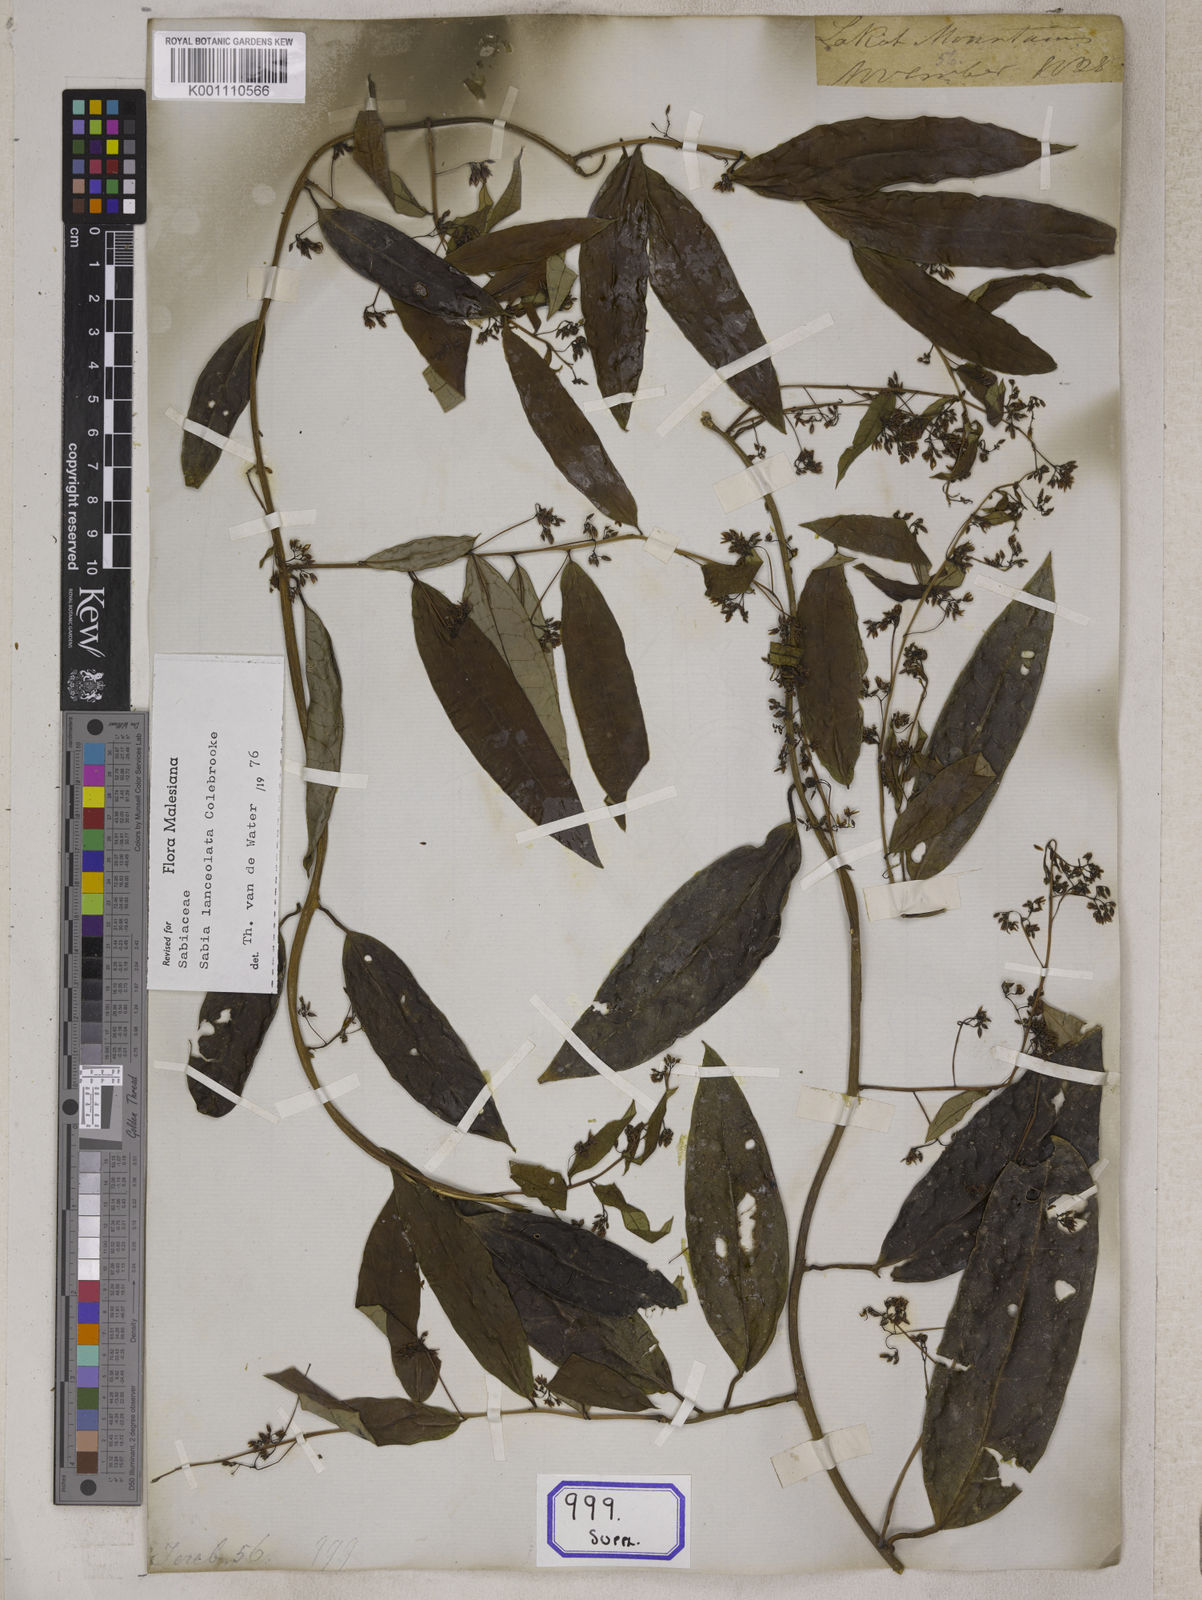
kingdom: Plantae
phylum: Tracheophyta
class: Magnoliopsida
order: Proteales
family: Sabiaceae
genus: Sabia
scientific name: Sabia lanceolata
